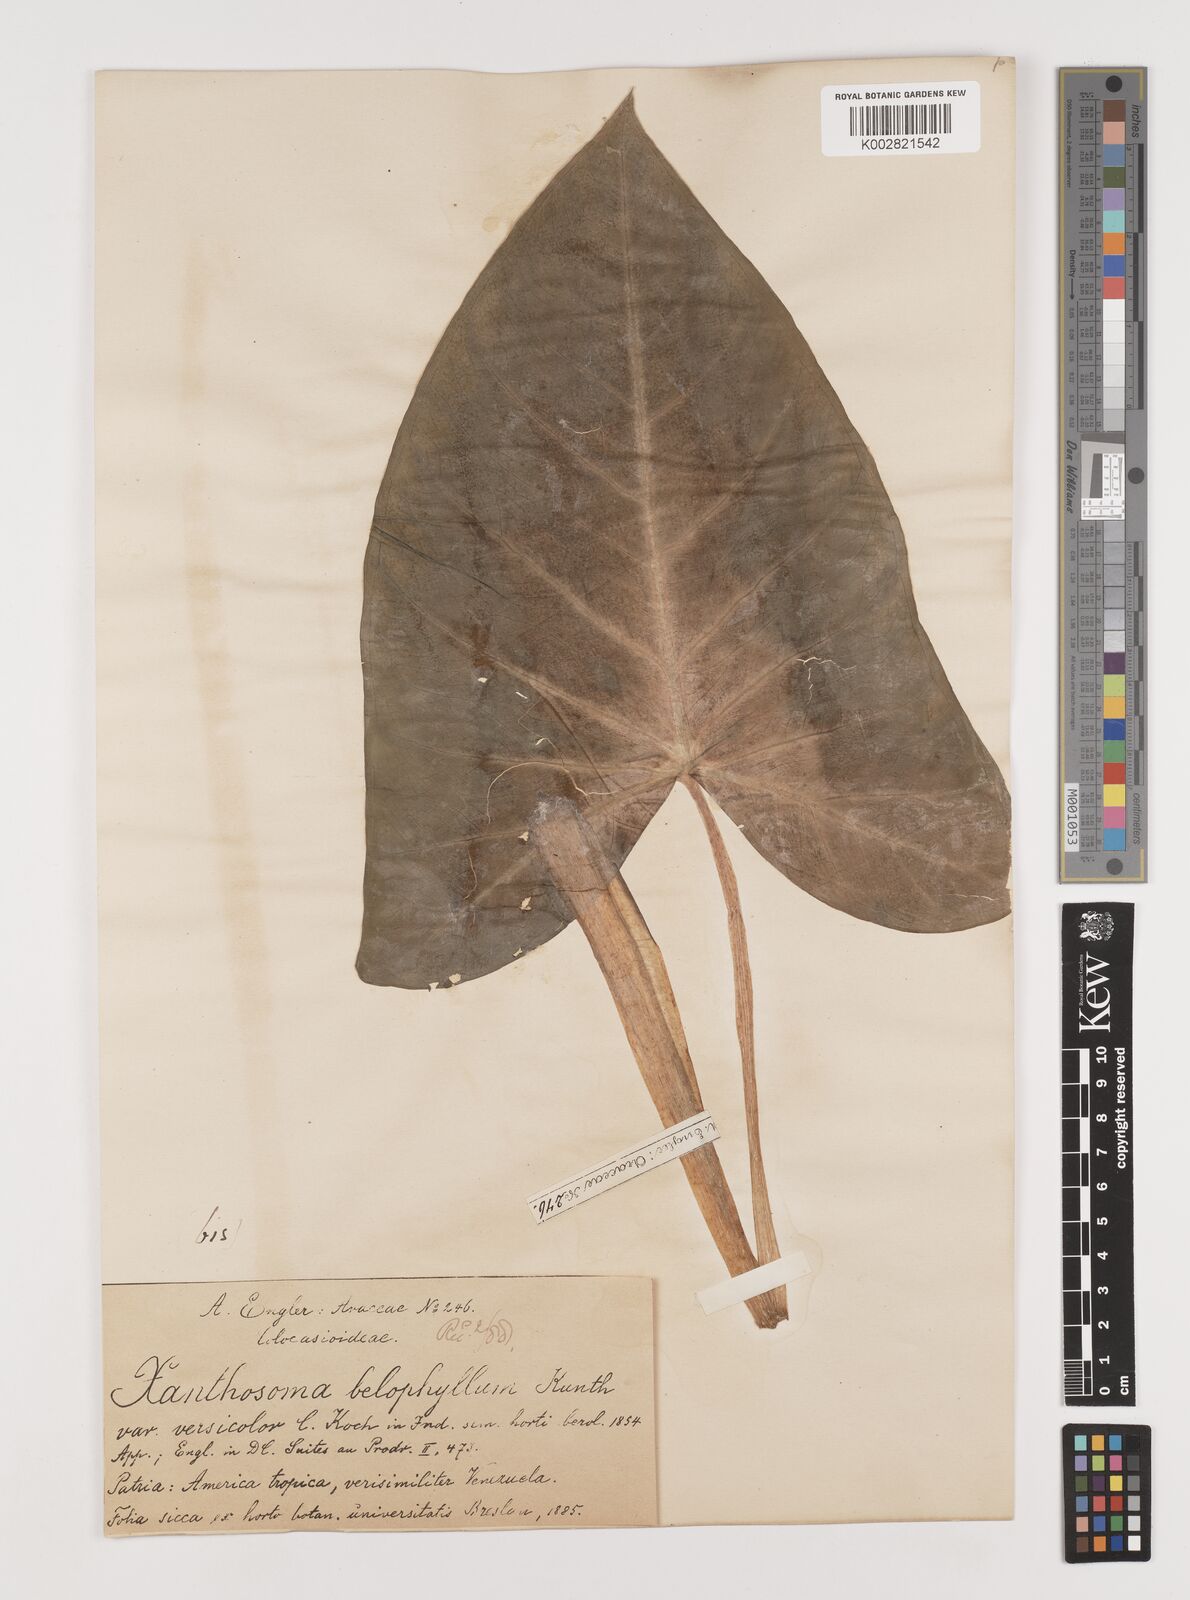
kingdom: Plantae
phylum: Tracheophyta
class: Liliopsida
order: Alismatales
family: Araceae
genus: Xanthosoma
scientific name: Xanthosoma belophyllum
